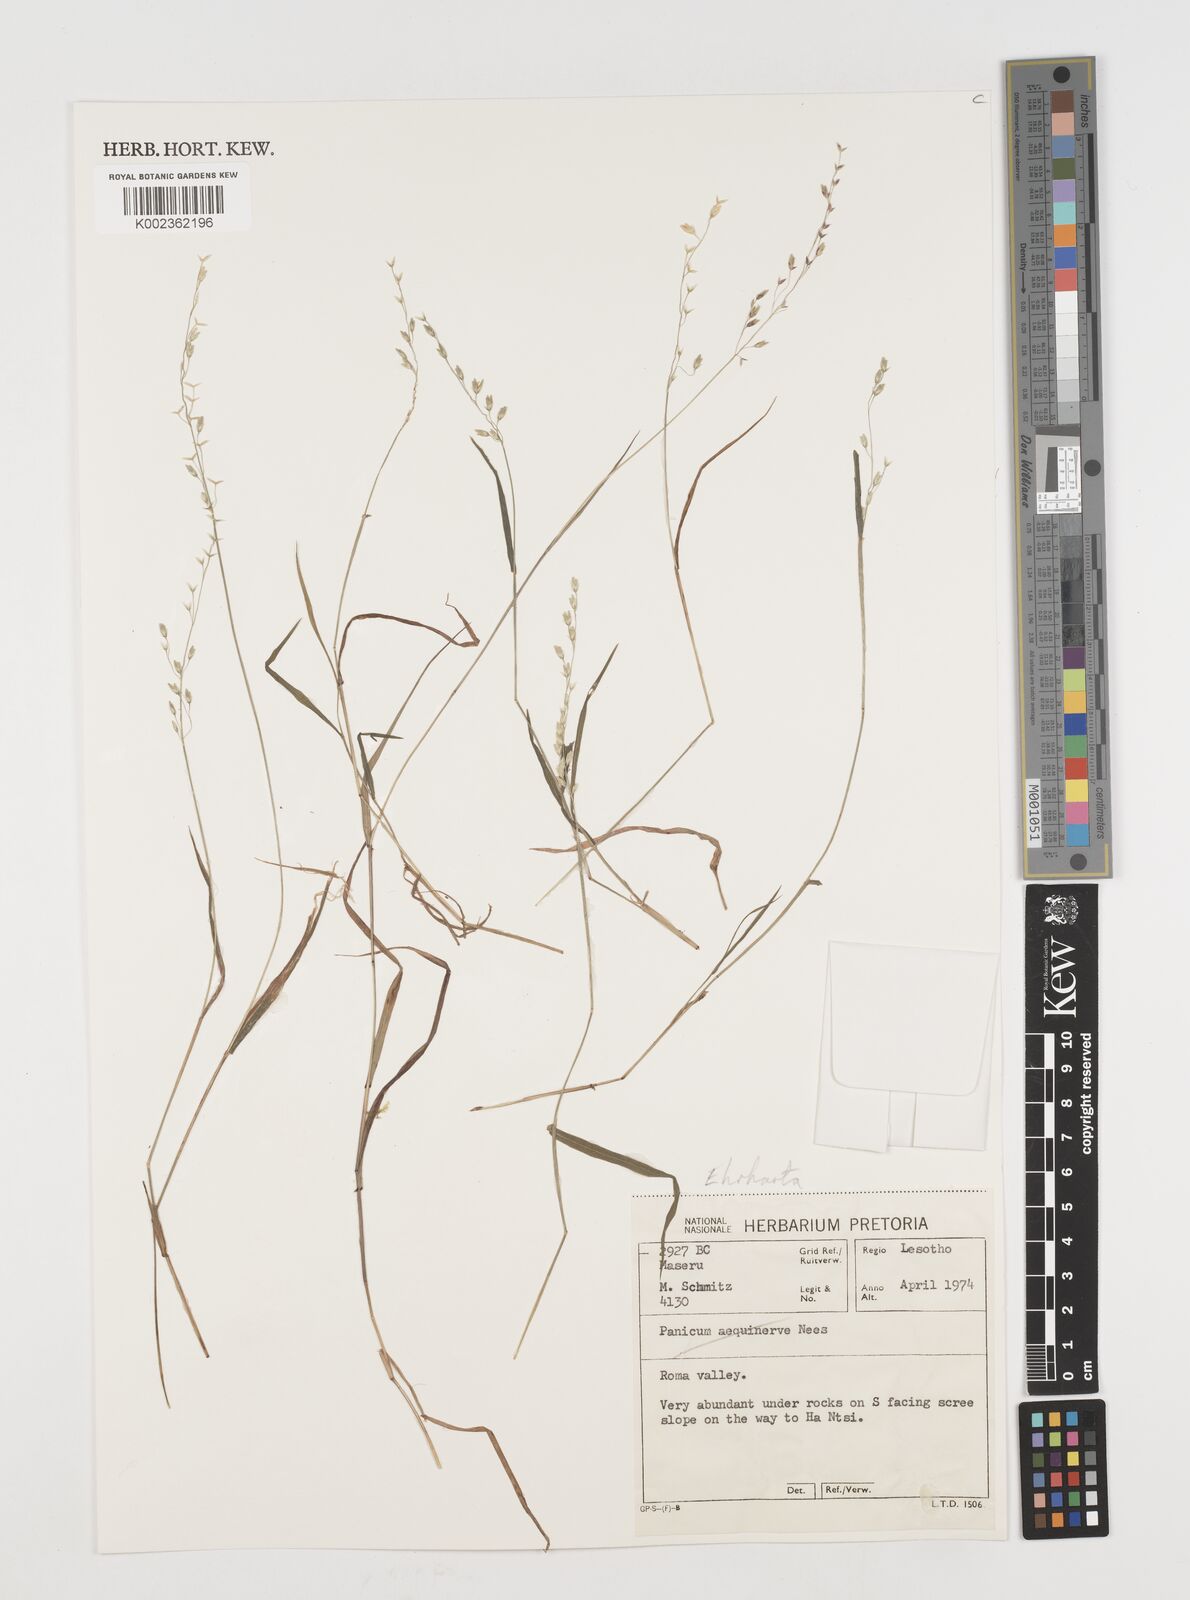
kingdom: Plantae
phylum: Tracheophyta
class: Liliopsida
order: Poales
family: Poaceae
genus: Ehrharta
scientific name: Ehrharta
